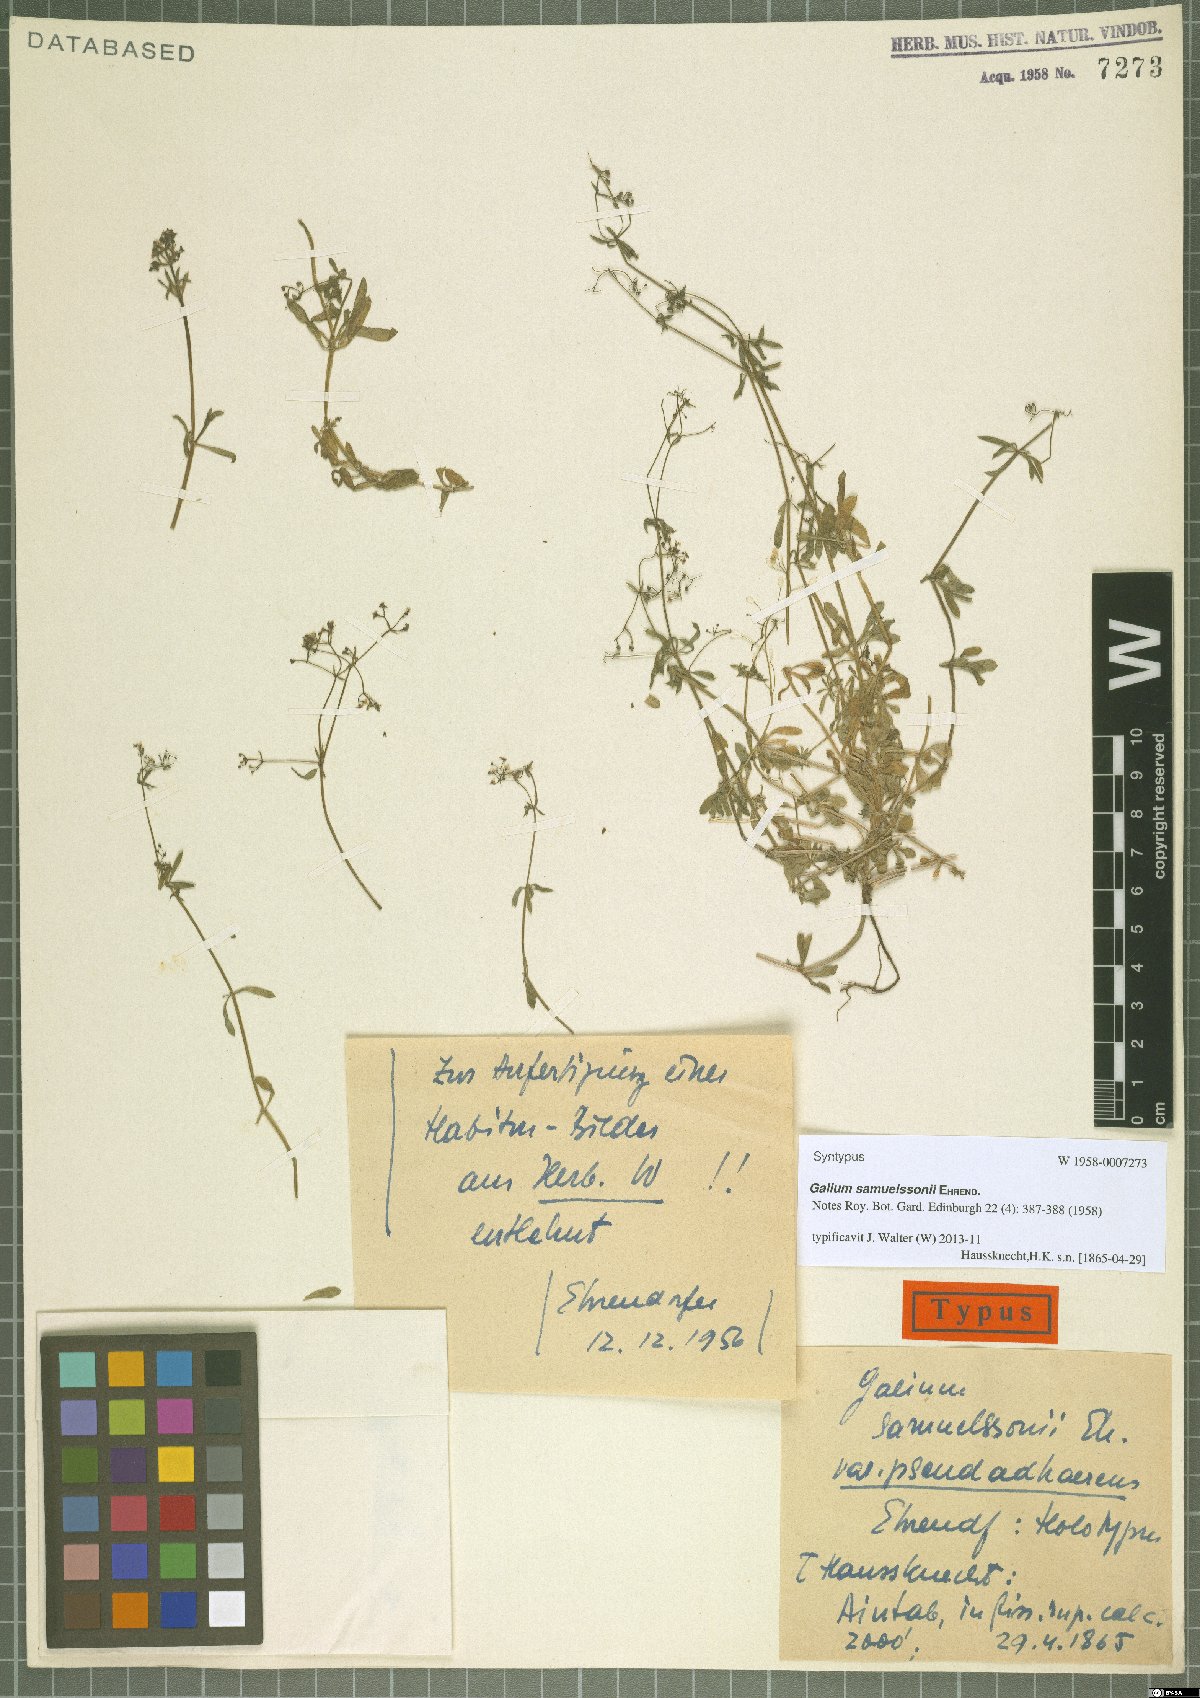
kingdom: Plantae
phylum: Tracheophyta
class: Magnoliopsida
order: Gentianales
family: Rubiaceae
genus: Galium
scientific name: Galium samuelssonii
